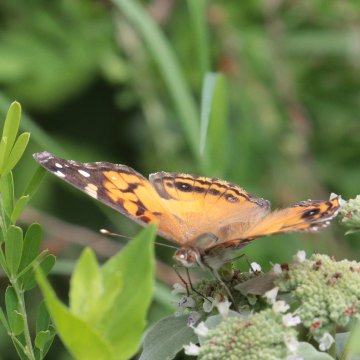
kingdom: Animalia
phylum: Arthropoda
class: Insecta
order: Lepidoptera
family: Nymphalidae
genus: Vanessa
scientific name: Vanessa virginiensis
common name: American Lady
